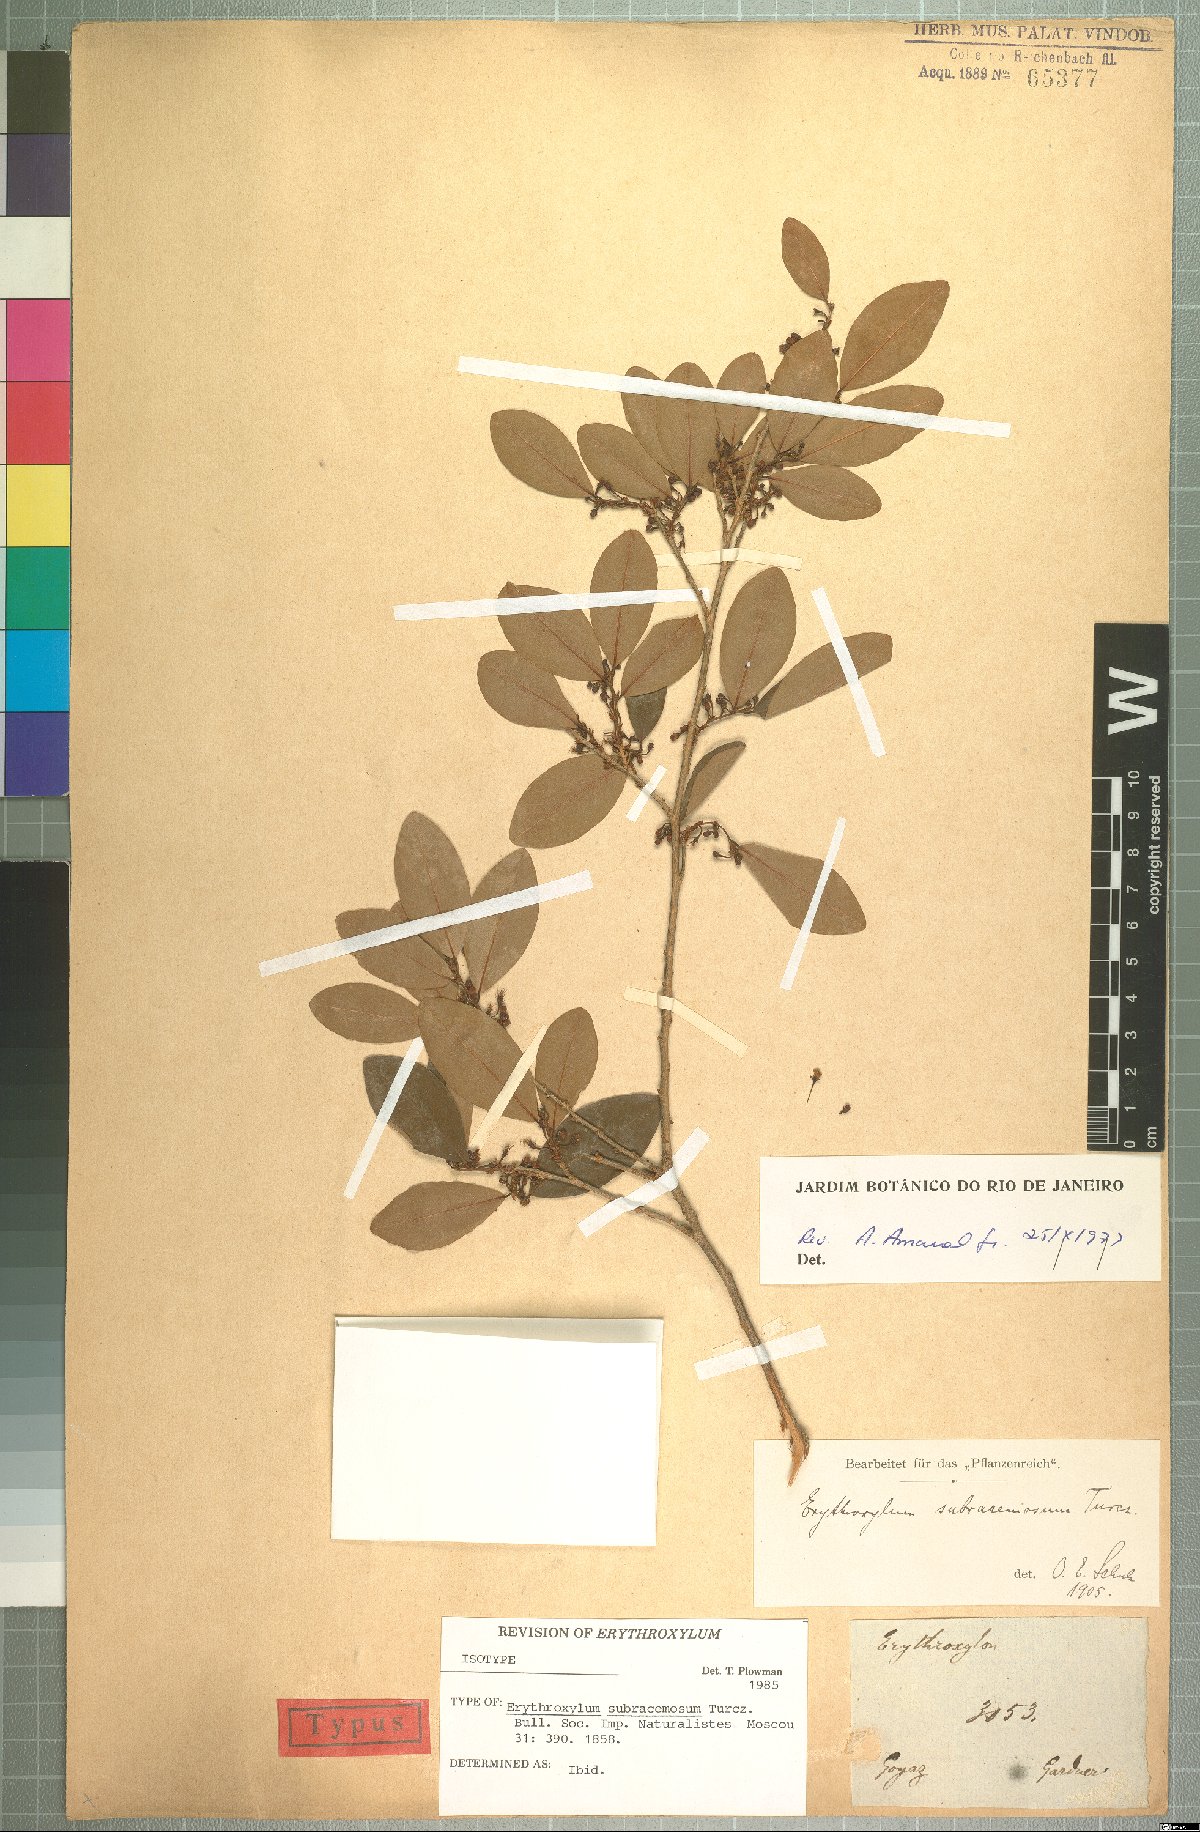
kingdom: Plantae
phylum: Tracheophyta
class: Magnoliopsida
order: Malpighiales
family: Erythroxylaceae
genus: Erythroxylum
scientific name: Erythroxylum subracemosum
